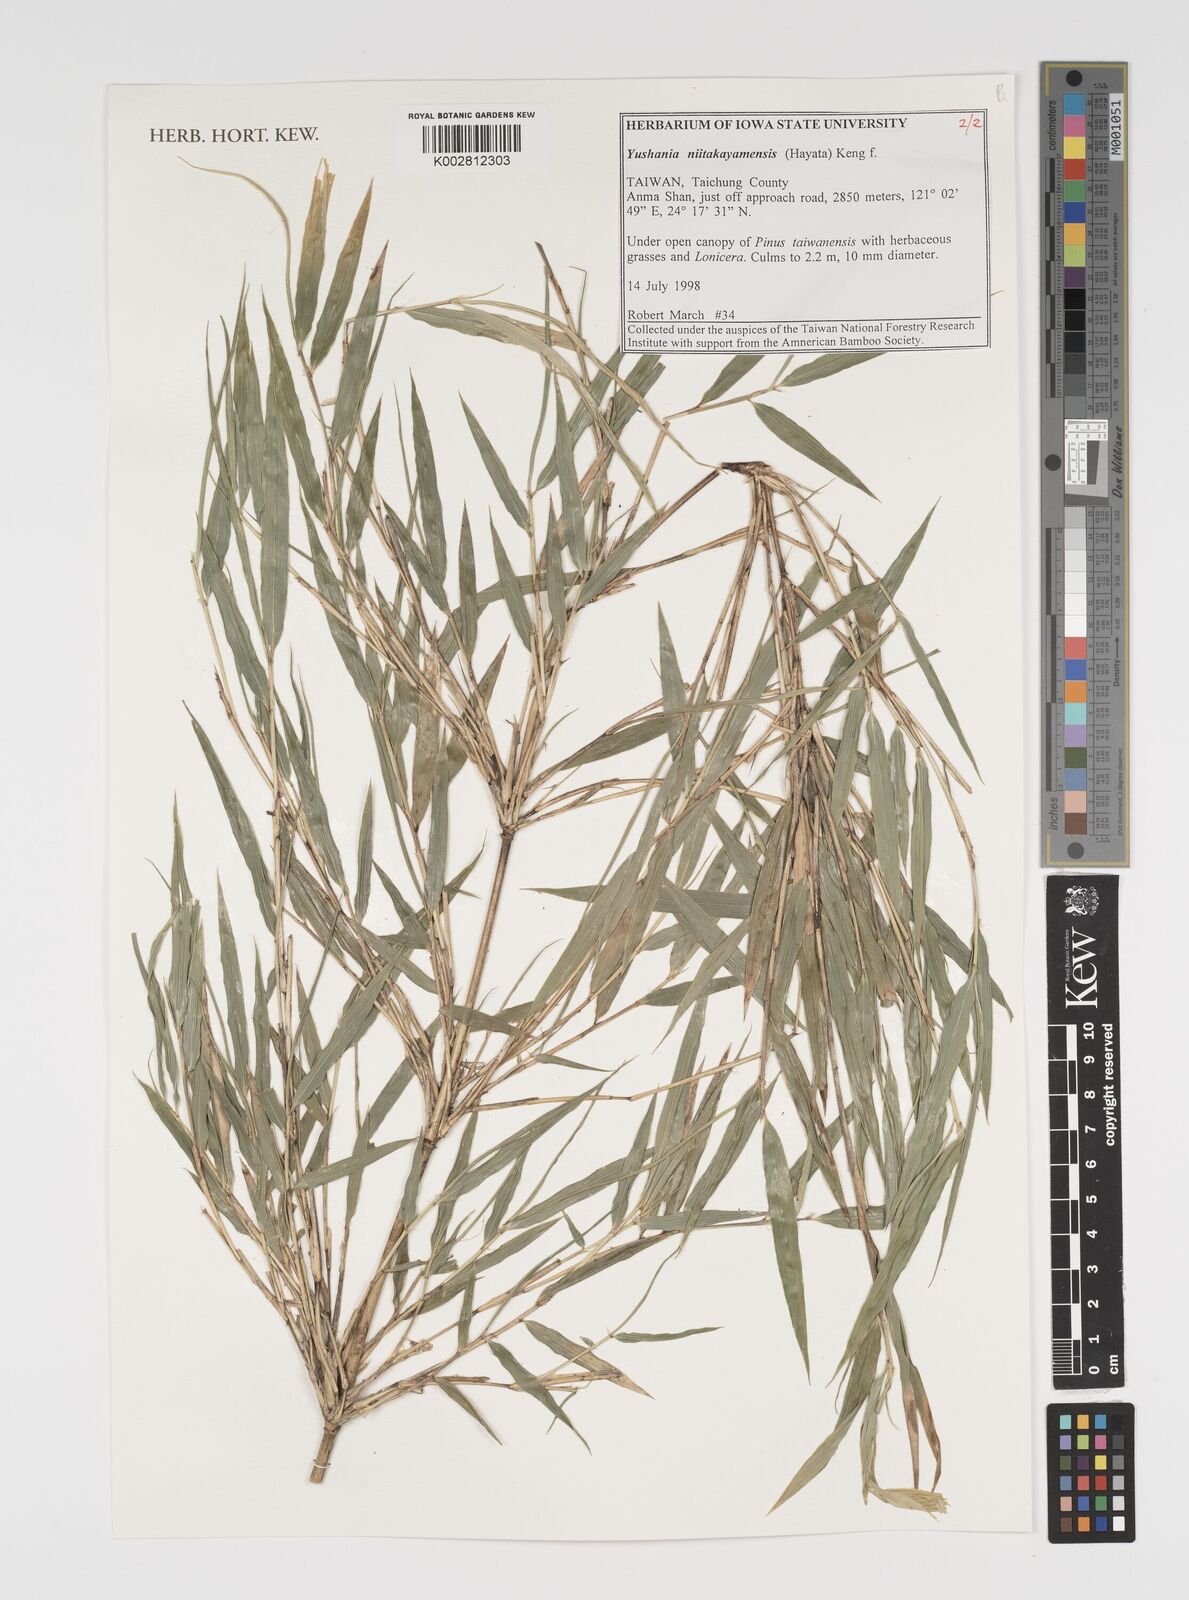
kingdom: Plantae
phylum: Tracheophyta
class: Liliopsida
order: Poales
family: Poaceae
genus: Yushania
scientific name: Yushania niitakayamensis
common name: Yushan cane
